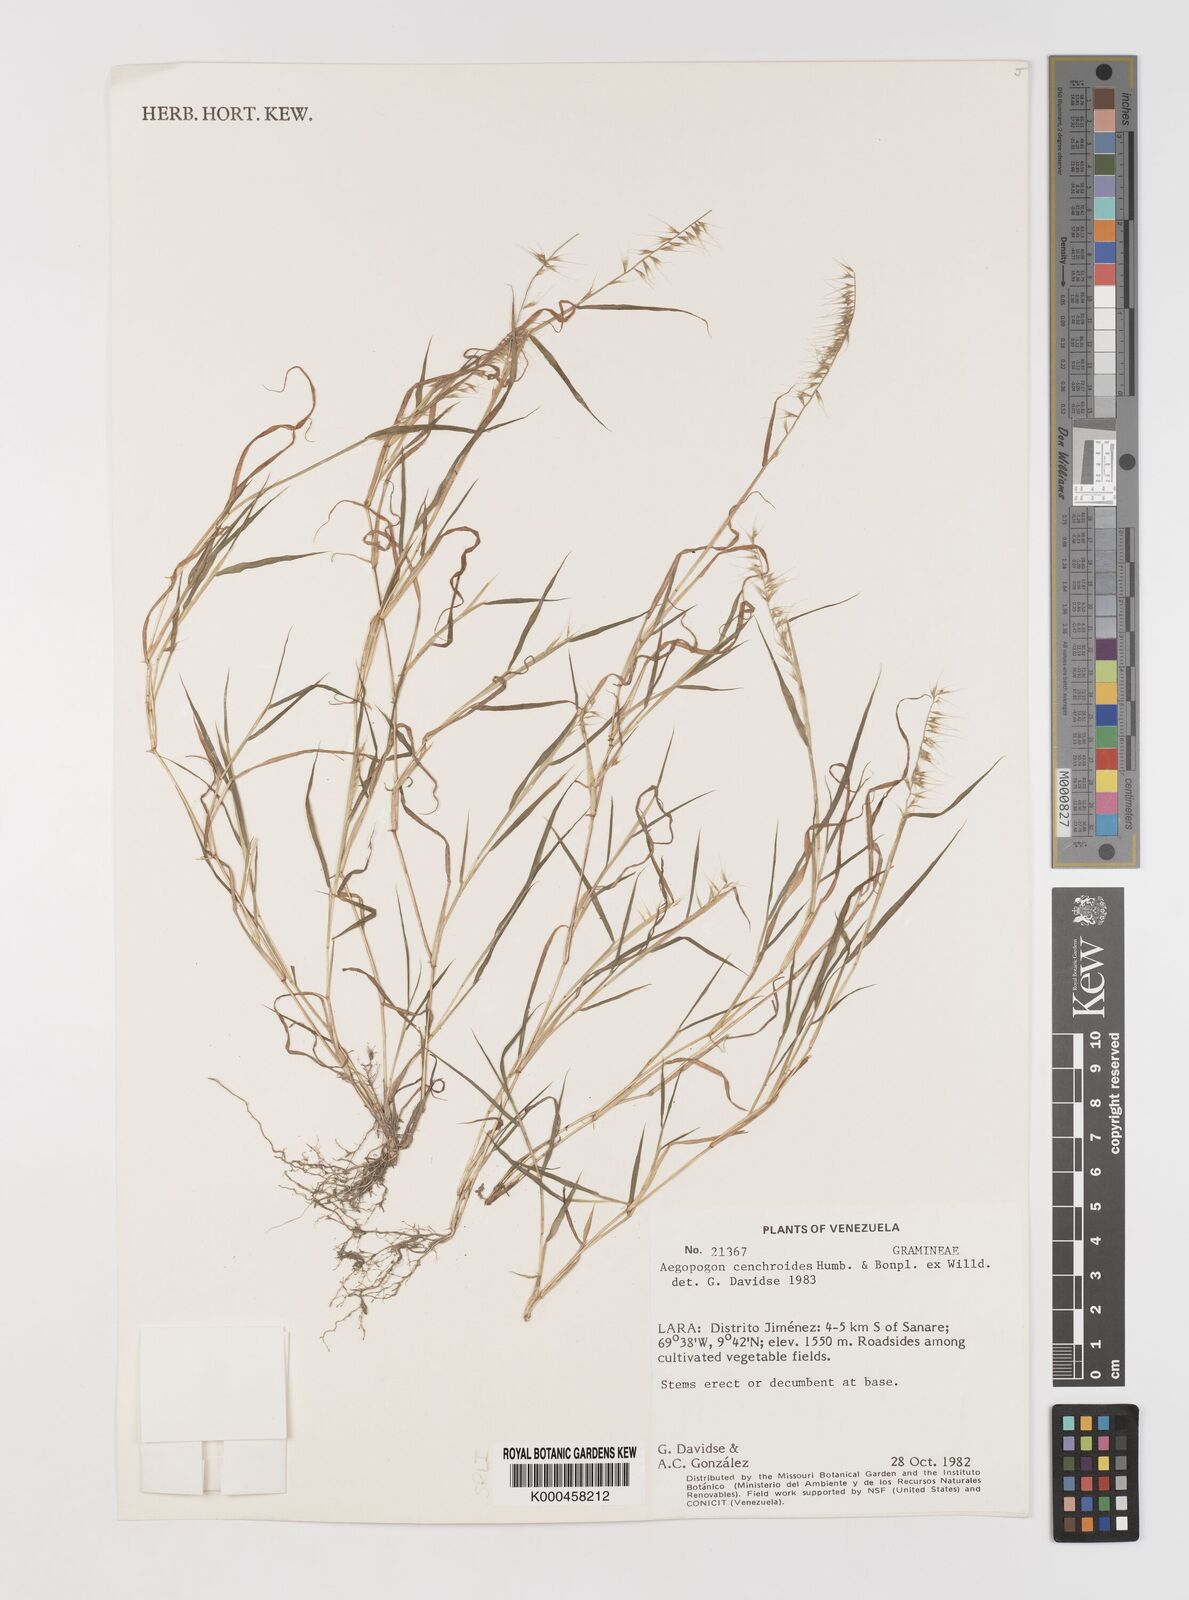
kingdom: Plantae
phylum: Tracheophyta
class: Liliopsida
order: Poales
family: Poaceae
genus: Muhlenbergia
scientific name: Muhlenbergia
